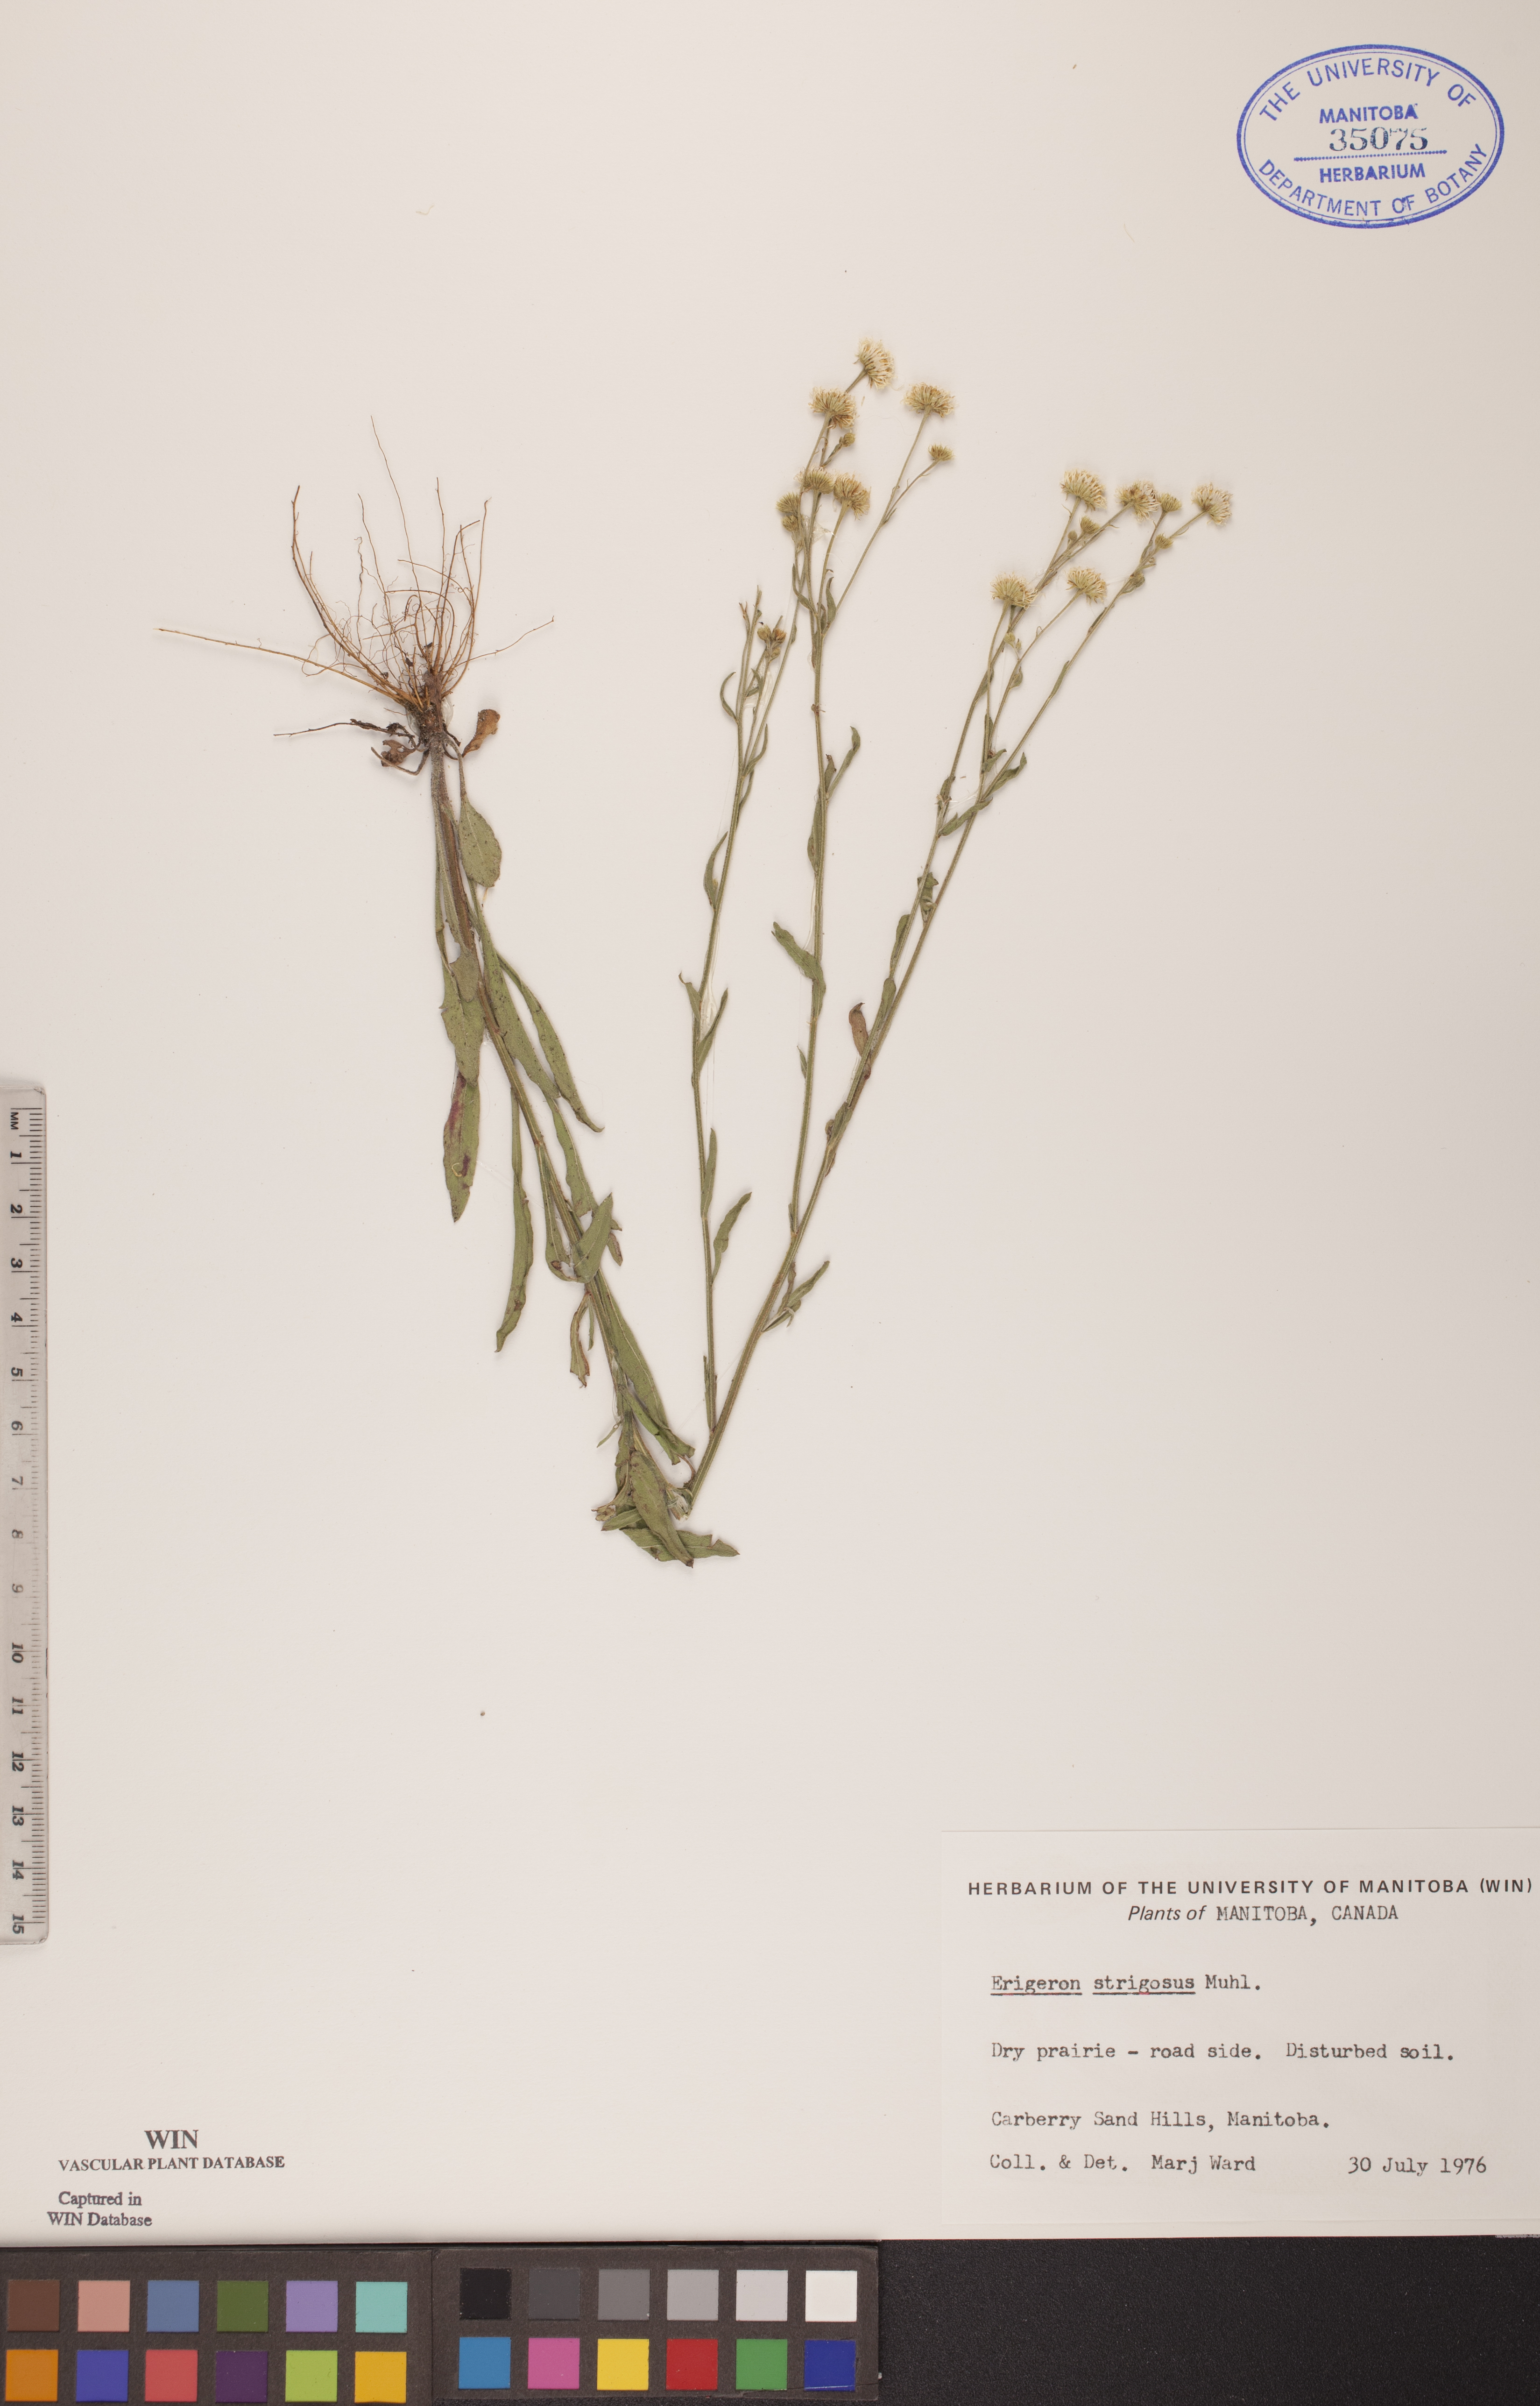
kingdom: Plantae
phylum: Tracheophyta
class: Magnoliopsida
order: Asterales
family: Asteraceae
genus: Erigeron
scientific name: Erigeron strigosus
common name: Common eastern fleabane
